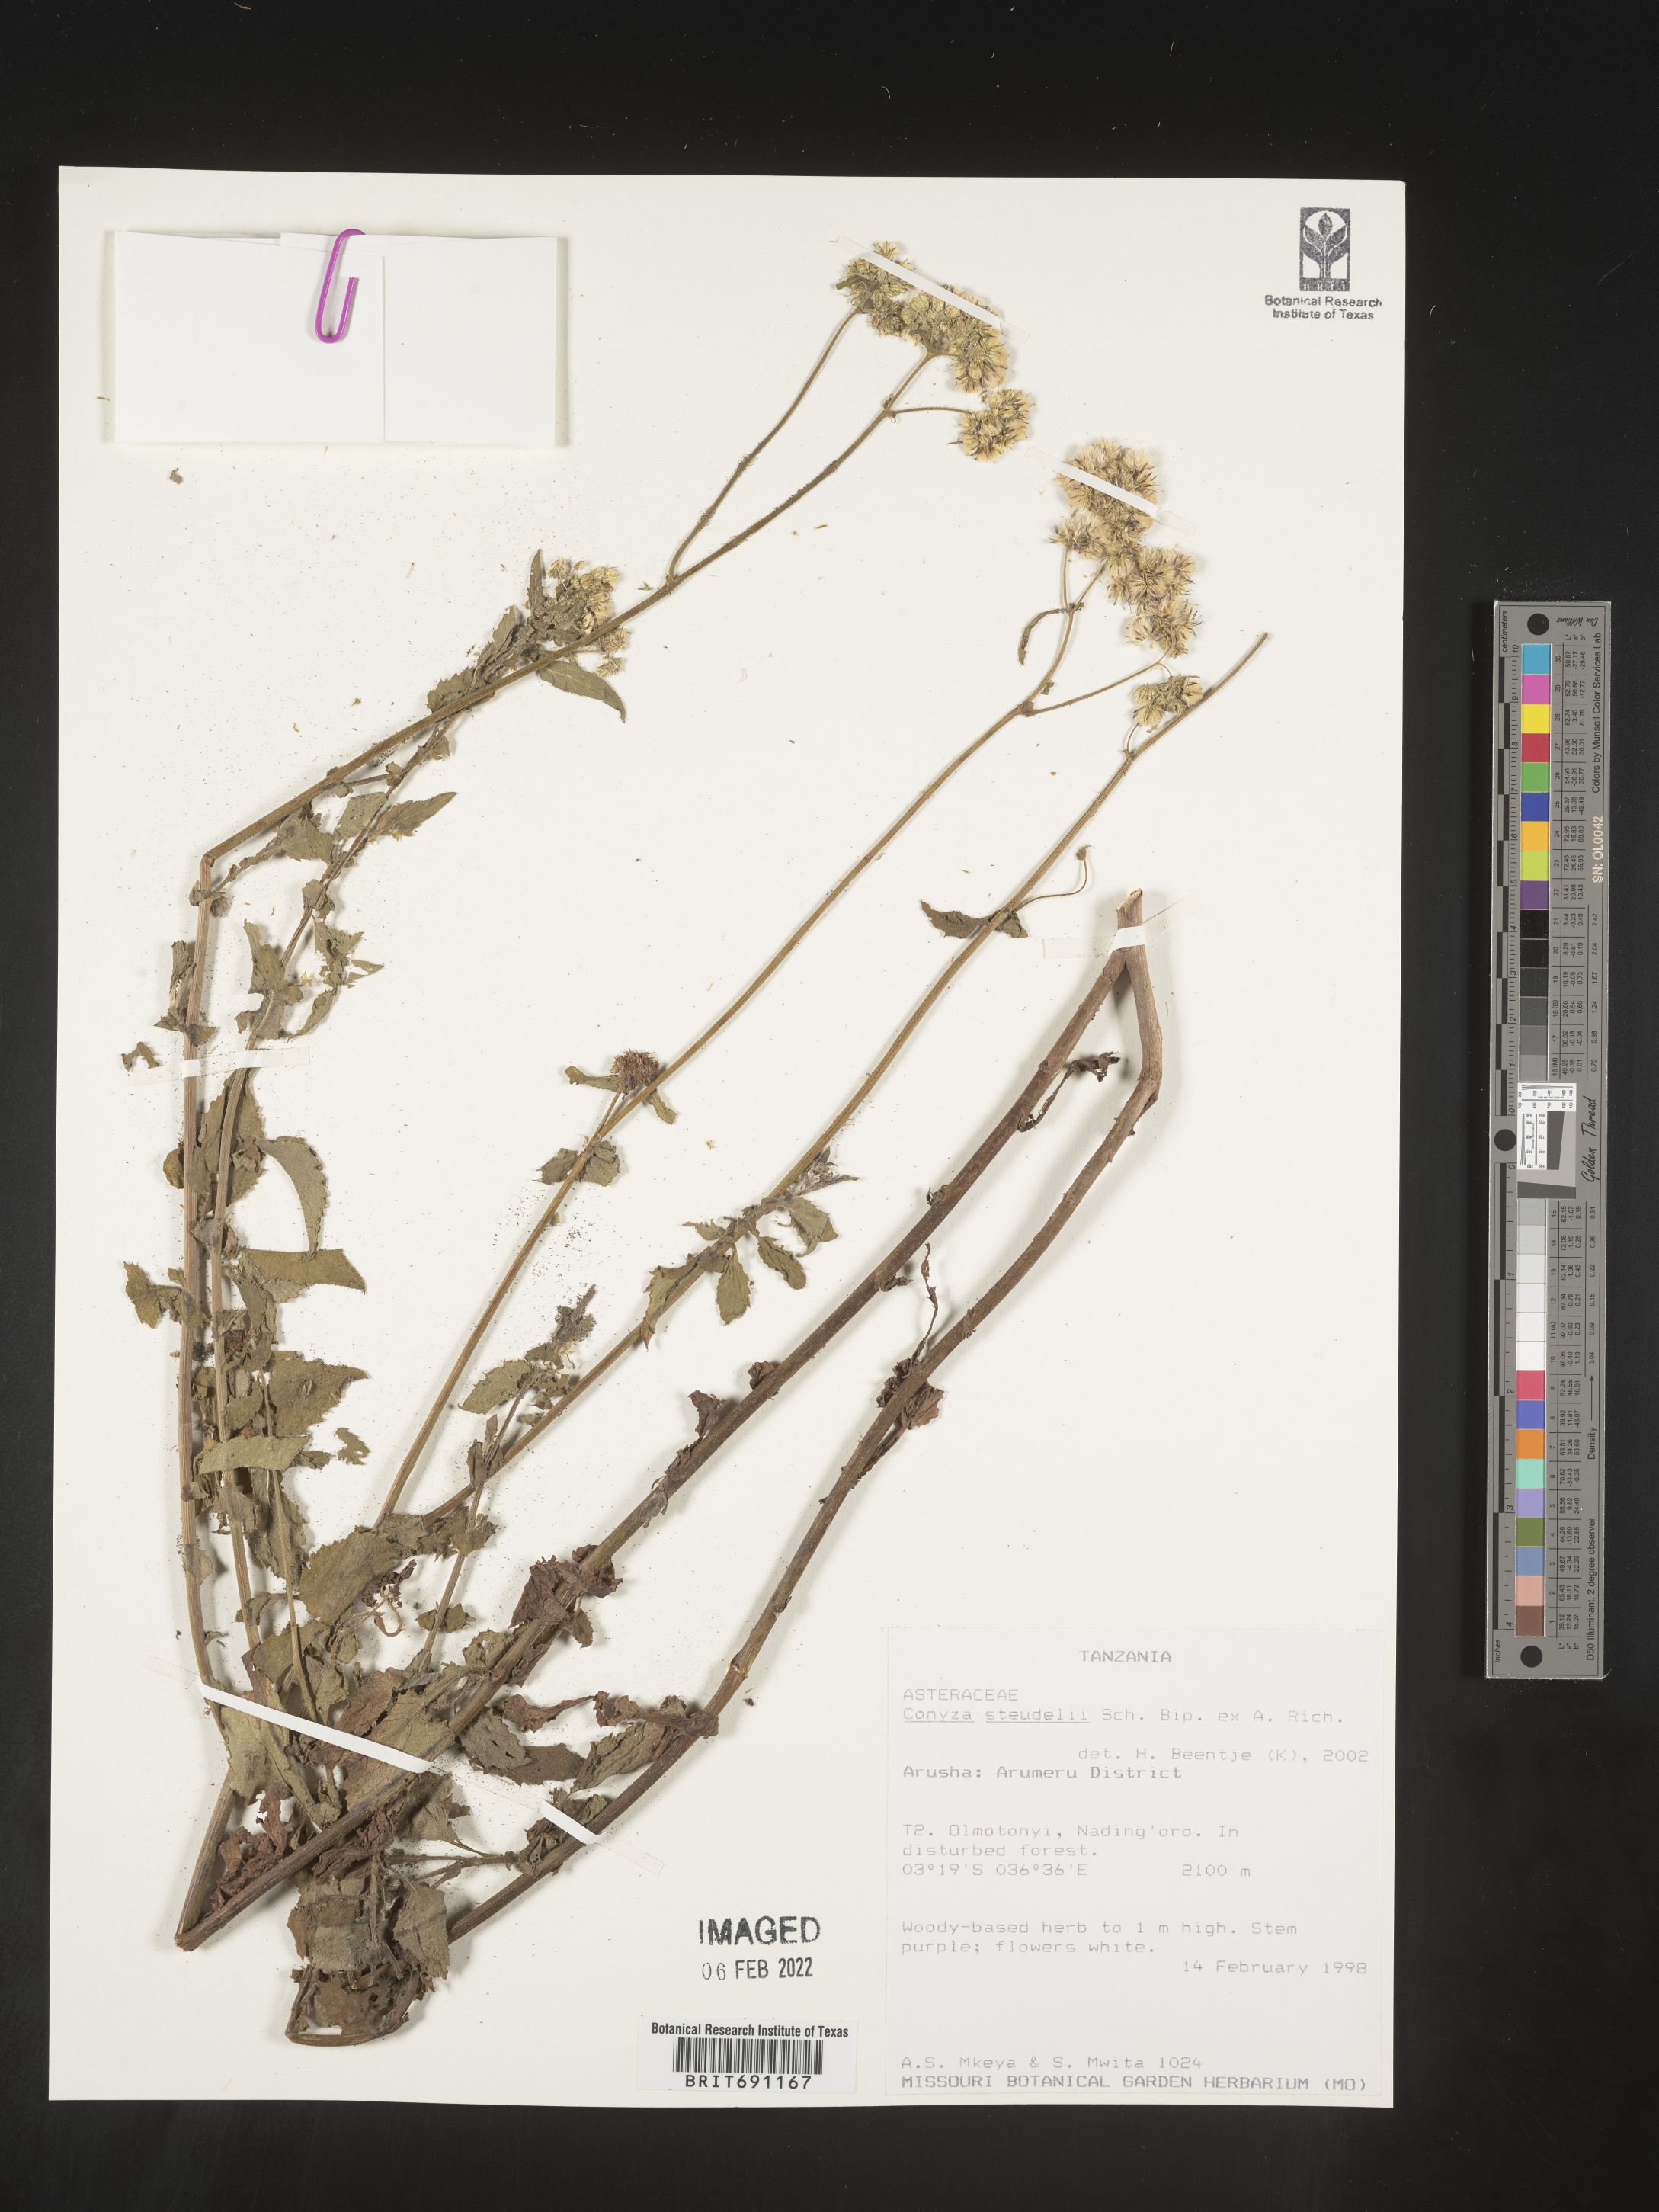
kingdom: Plantae
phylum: Tracheophyta
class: Magnoliopsida
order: Asterales
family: Asteraceae
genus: Conyza
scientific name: Conyza
